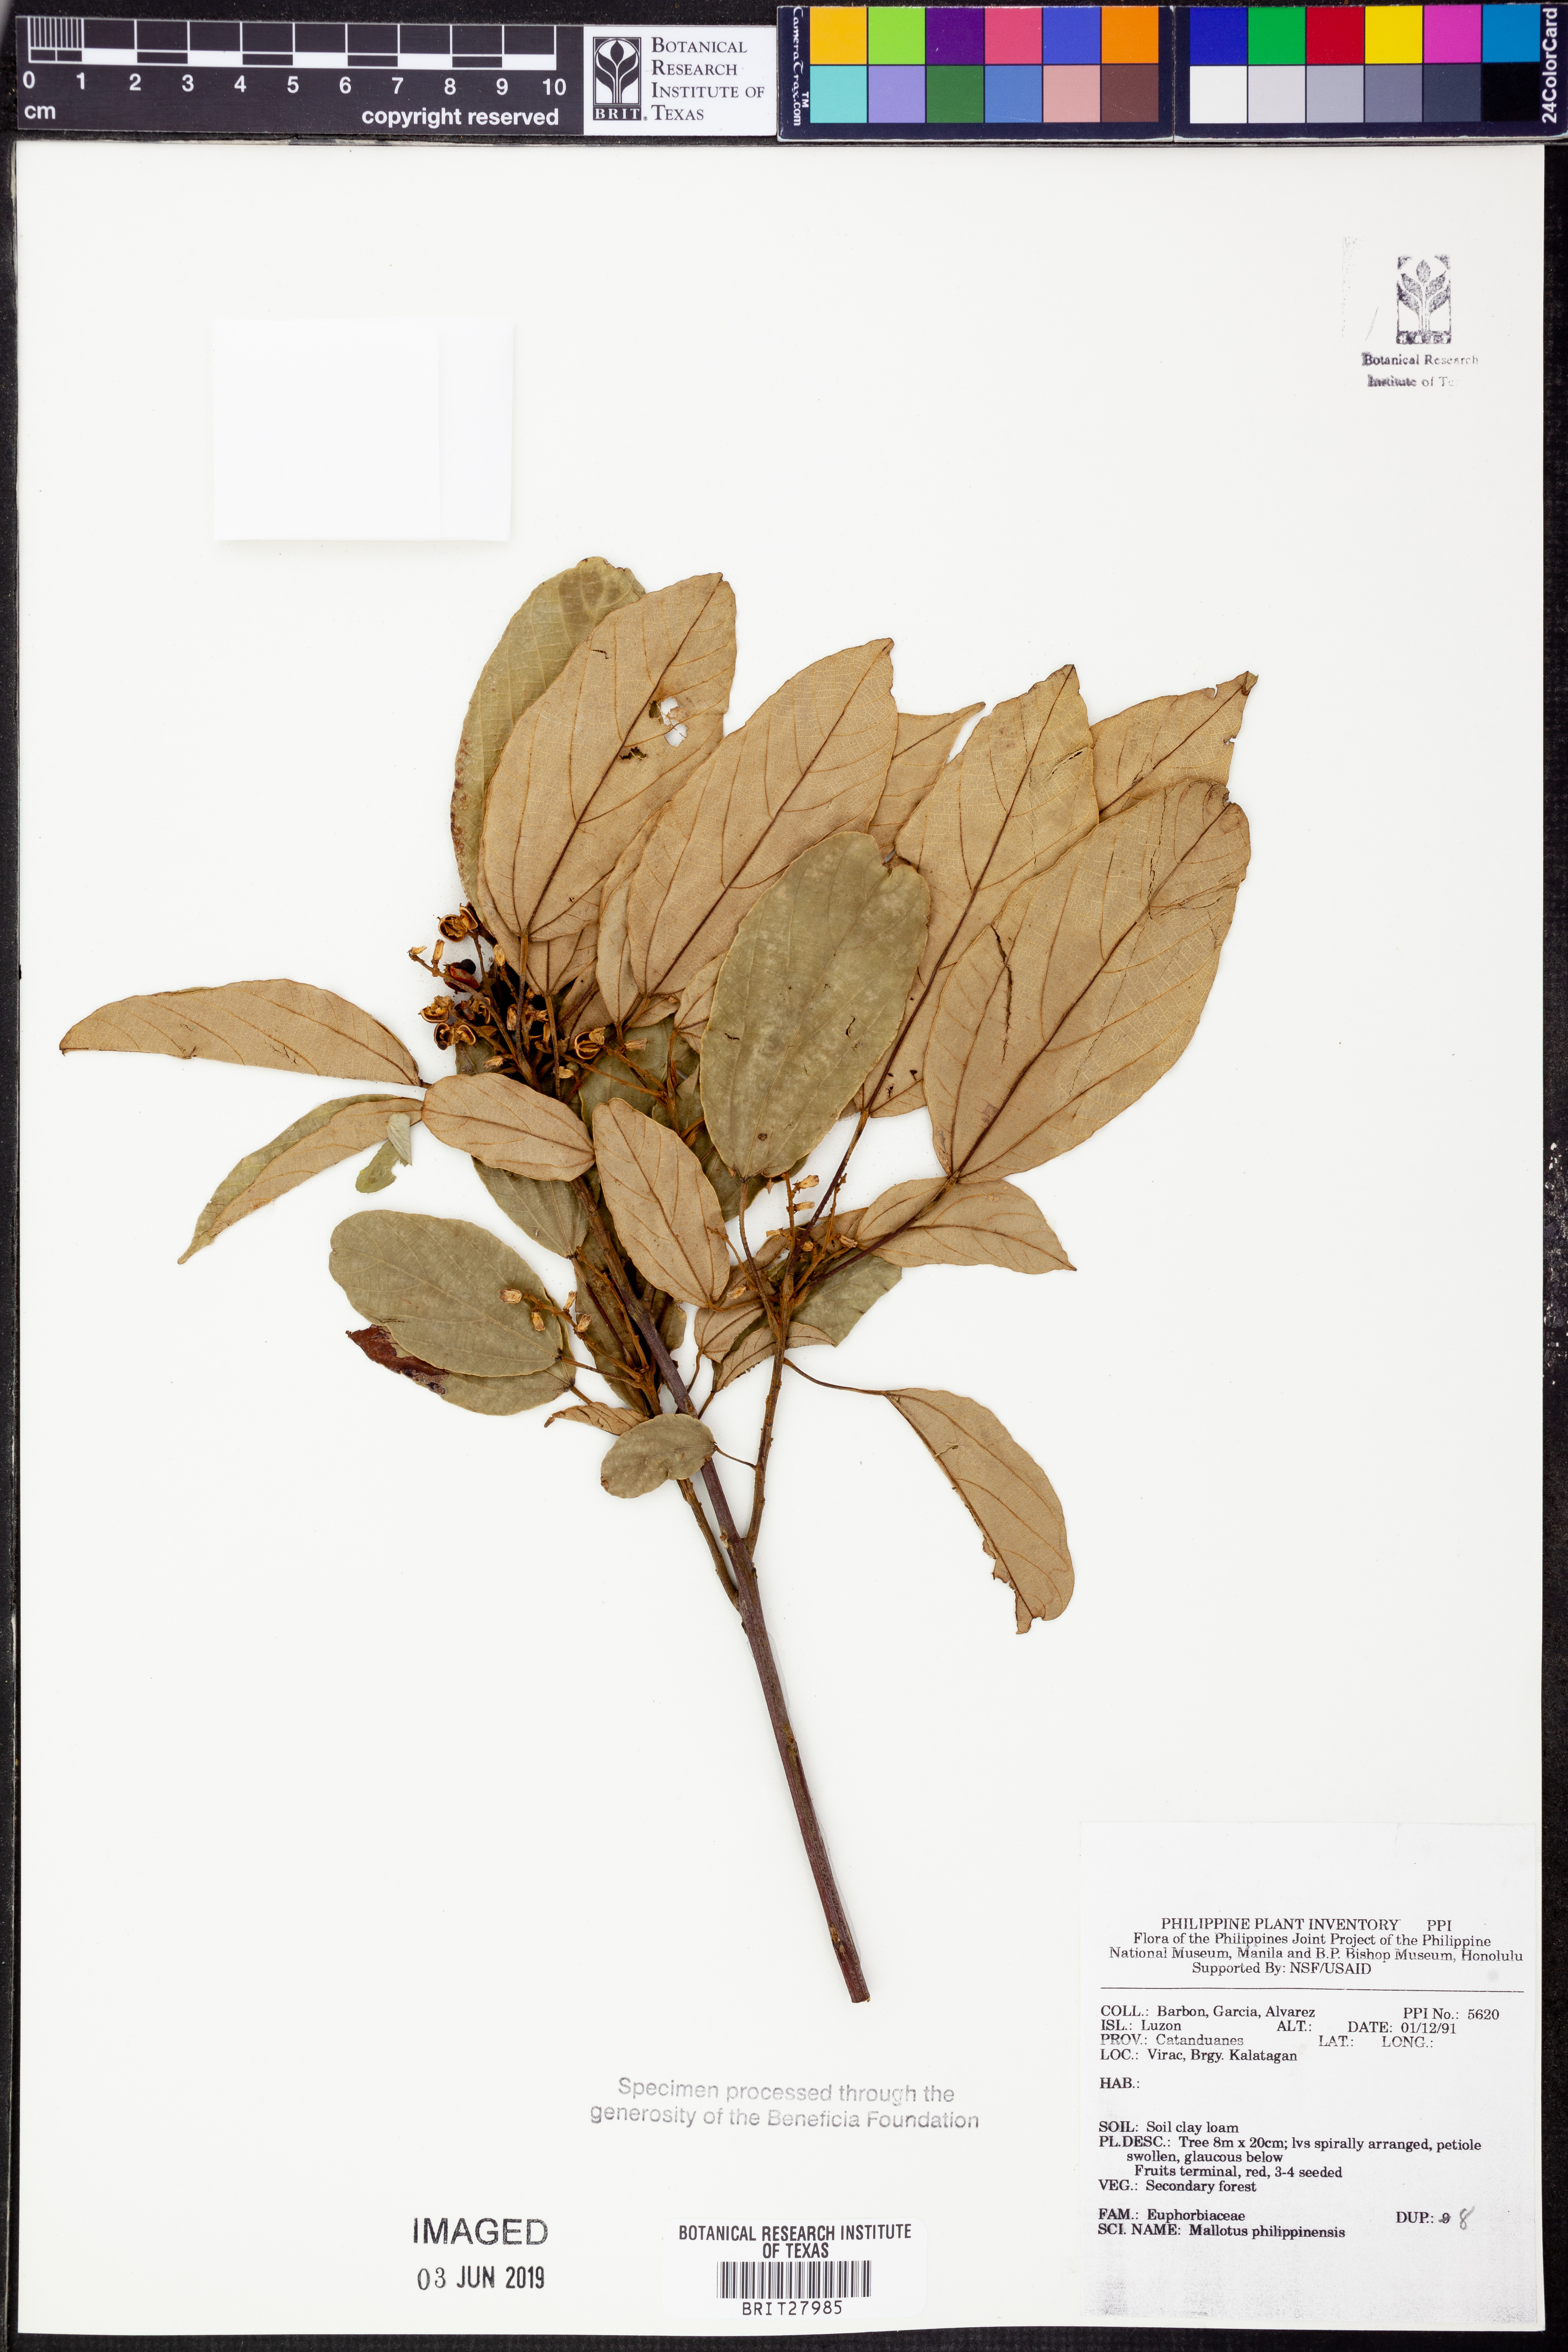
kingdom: Plantae
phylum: Tracheophyta
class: Magnoliopsida
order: Malpighiales
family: Euphorbiaceae
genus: Mallotus
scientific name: Mallotus philippensis
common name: Kamala tree
